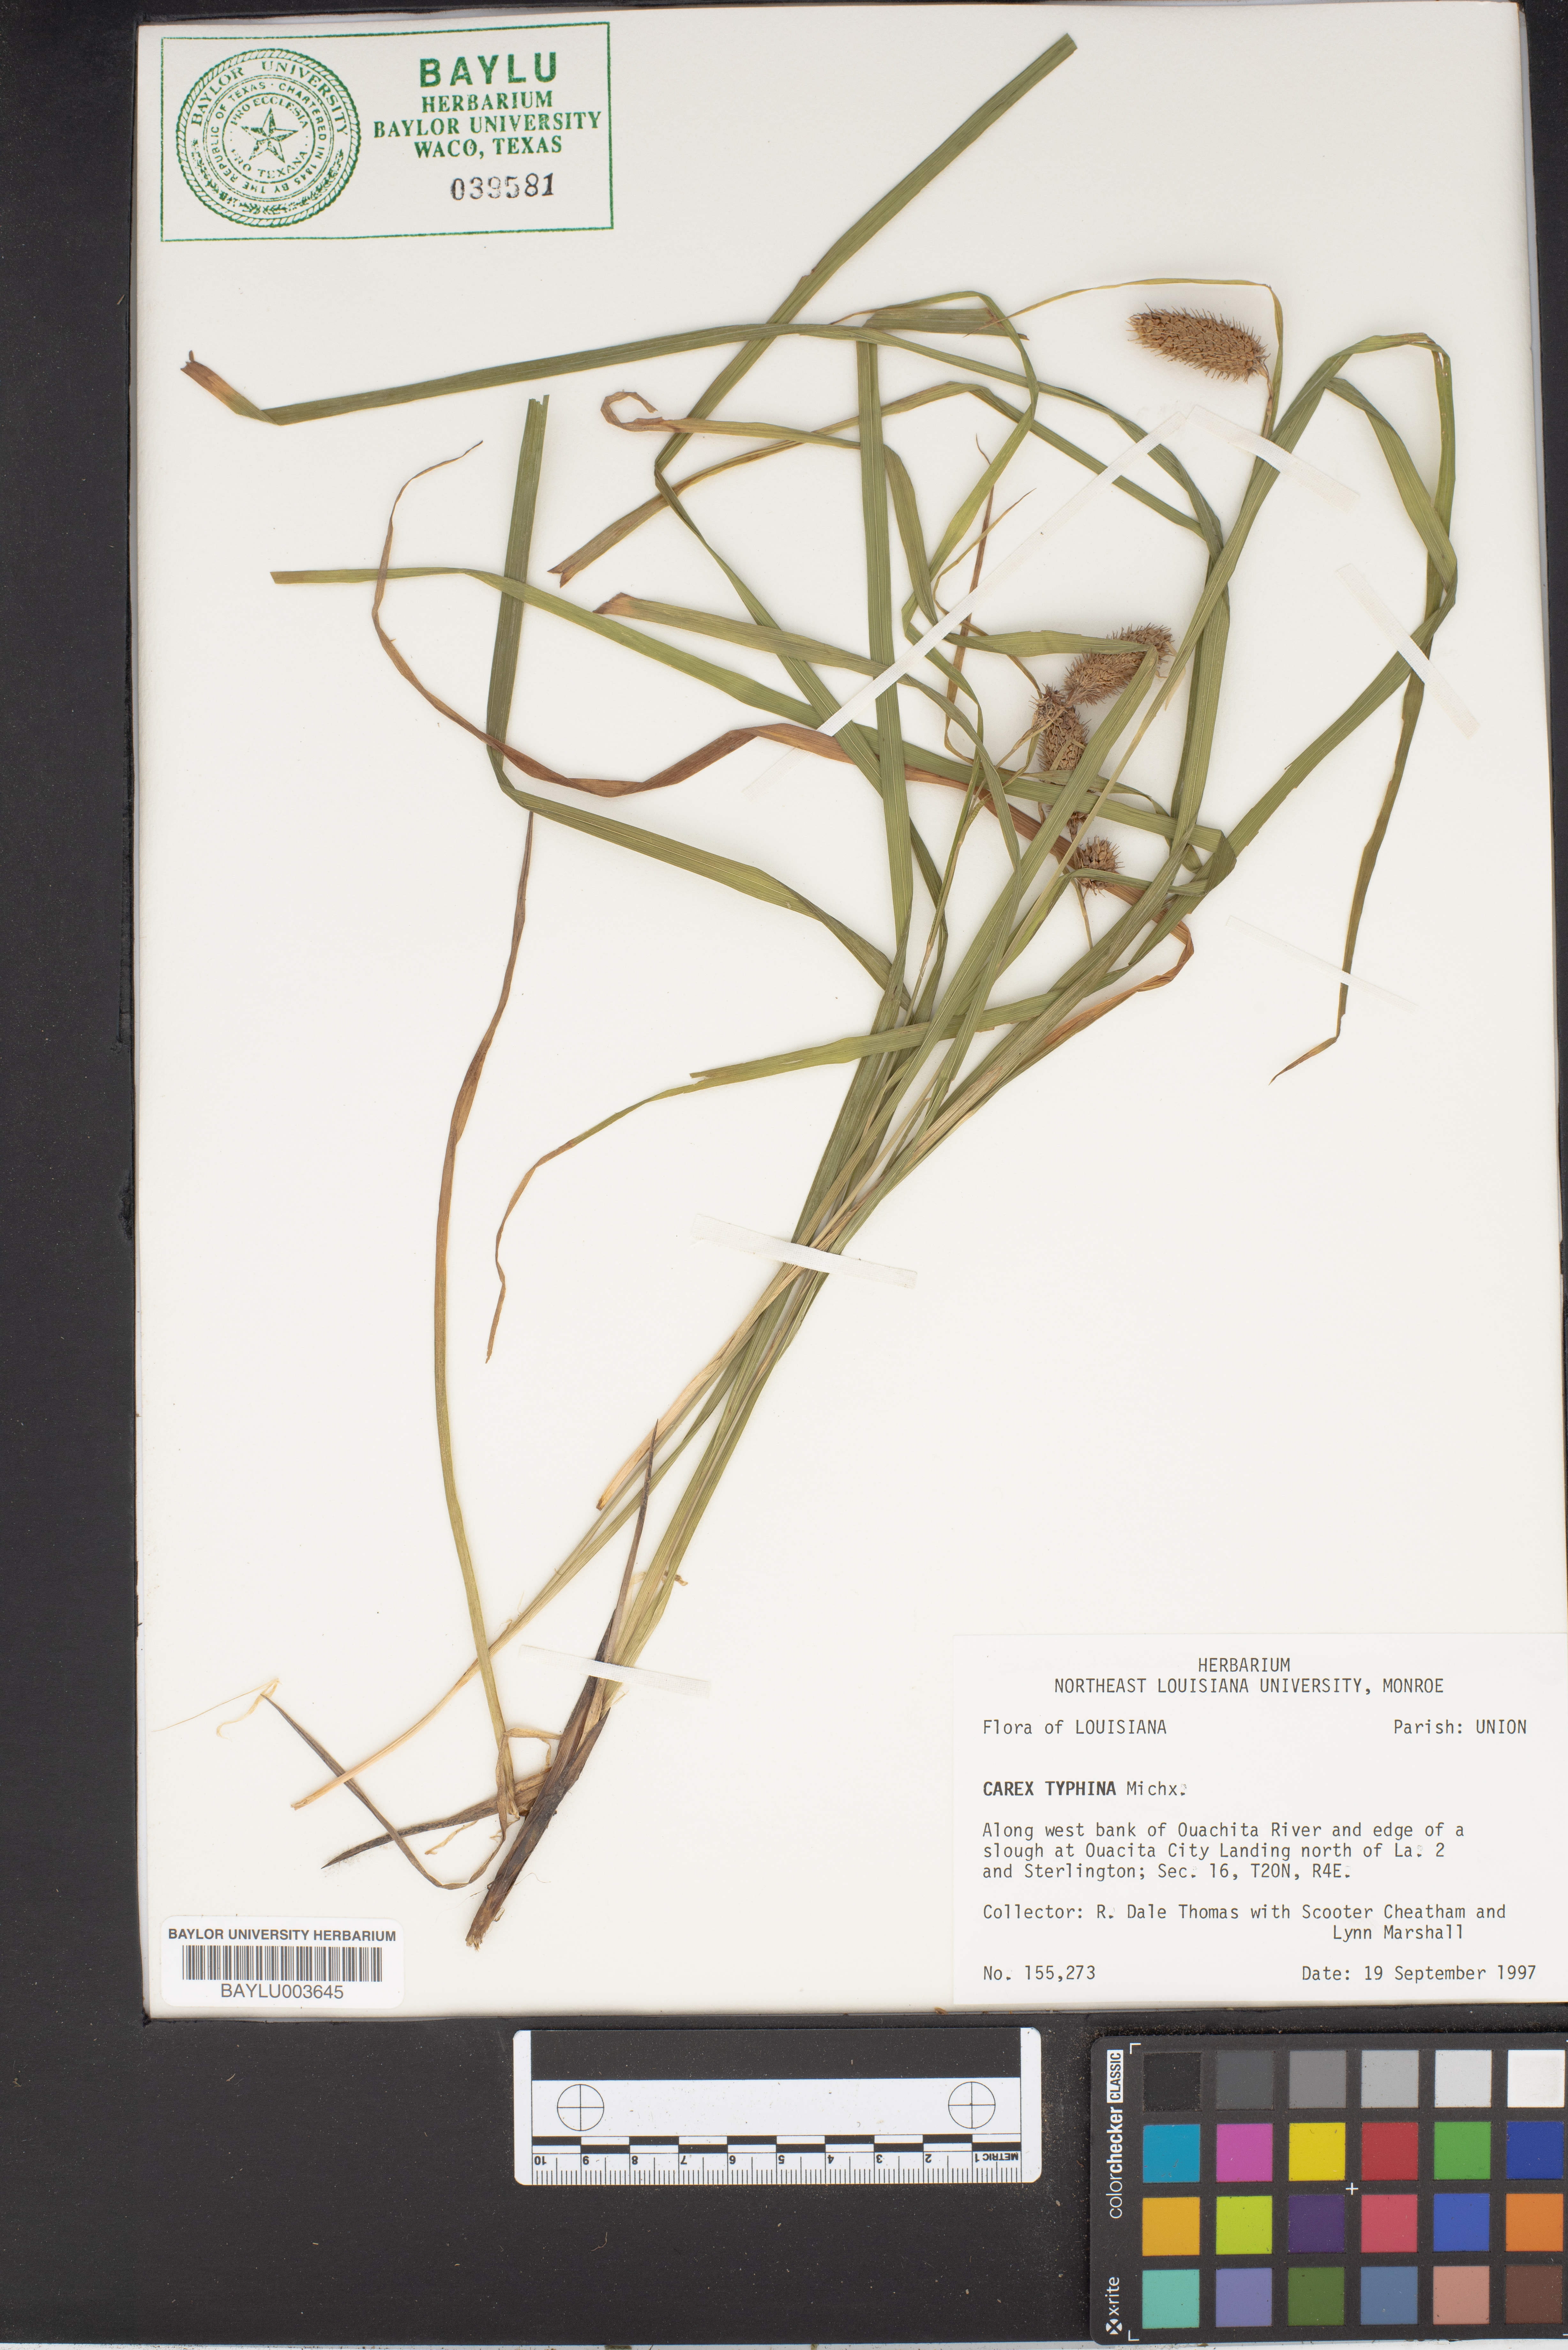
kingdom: Plantae
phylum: Tracheophyta
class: Liliopsida
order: Poales
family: Cyperaceae
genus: Carex
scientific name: Carex typhina
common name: Cattail sedge
